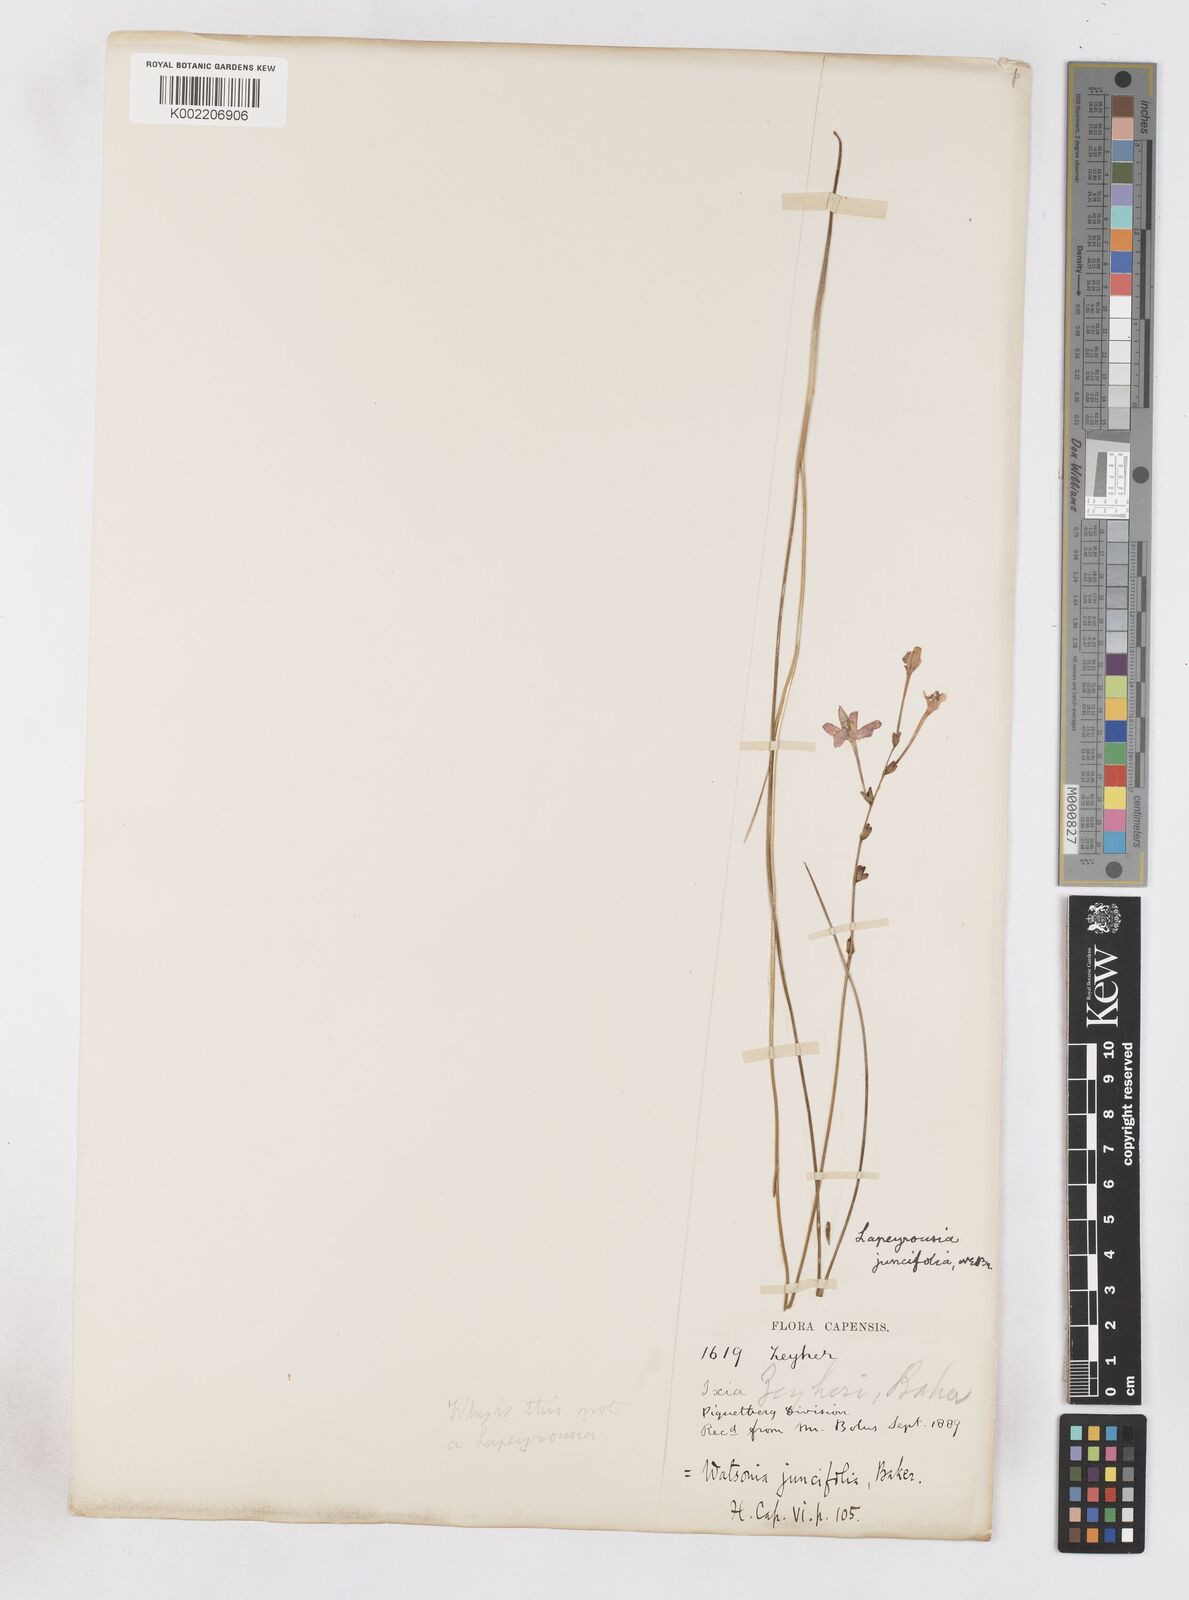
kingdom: Plantae
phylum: Tracheophyta
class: Liliopsida
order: Asparagales
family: Iridaceae
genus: Micranthus
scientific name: Micranthus plantagineus
